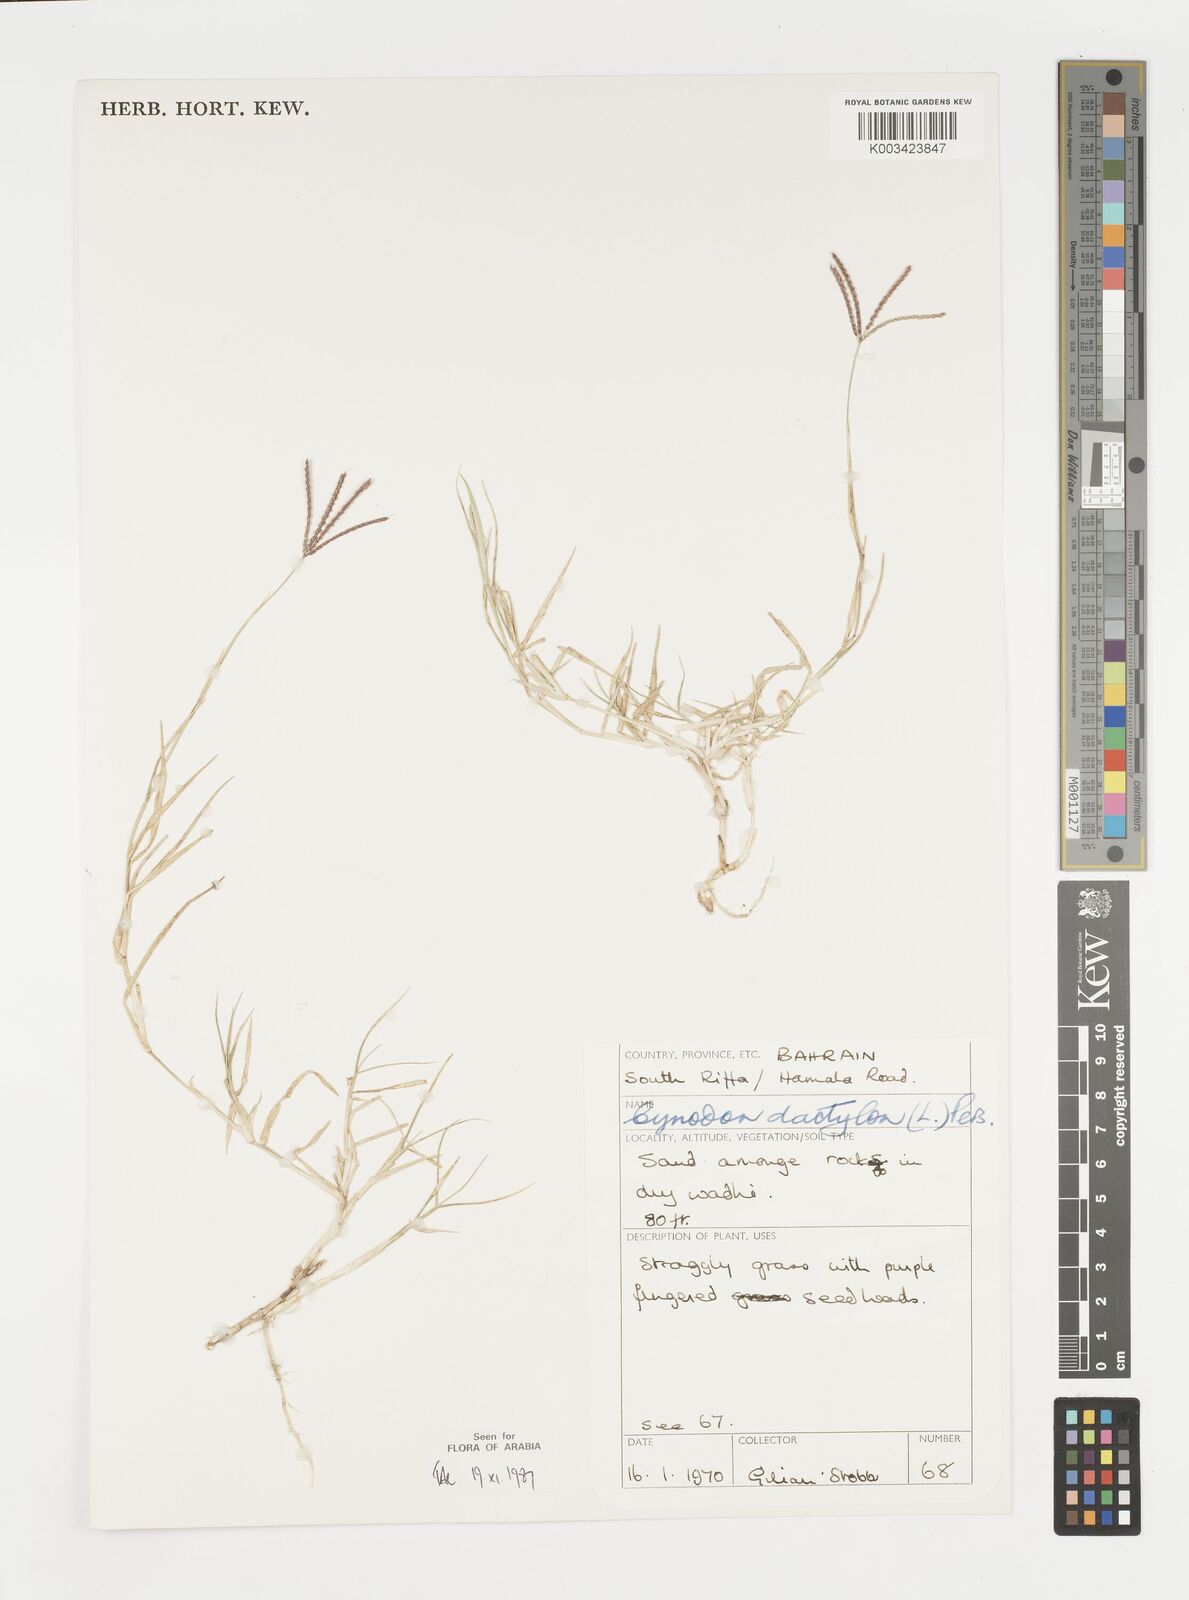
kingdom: Plantae
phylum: Tracheophyta
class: Liliopsida
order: Poales
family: Poaceae
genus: Cynodon
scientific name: Cynodon dactylon
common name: Bermuda grass
